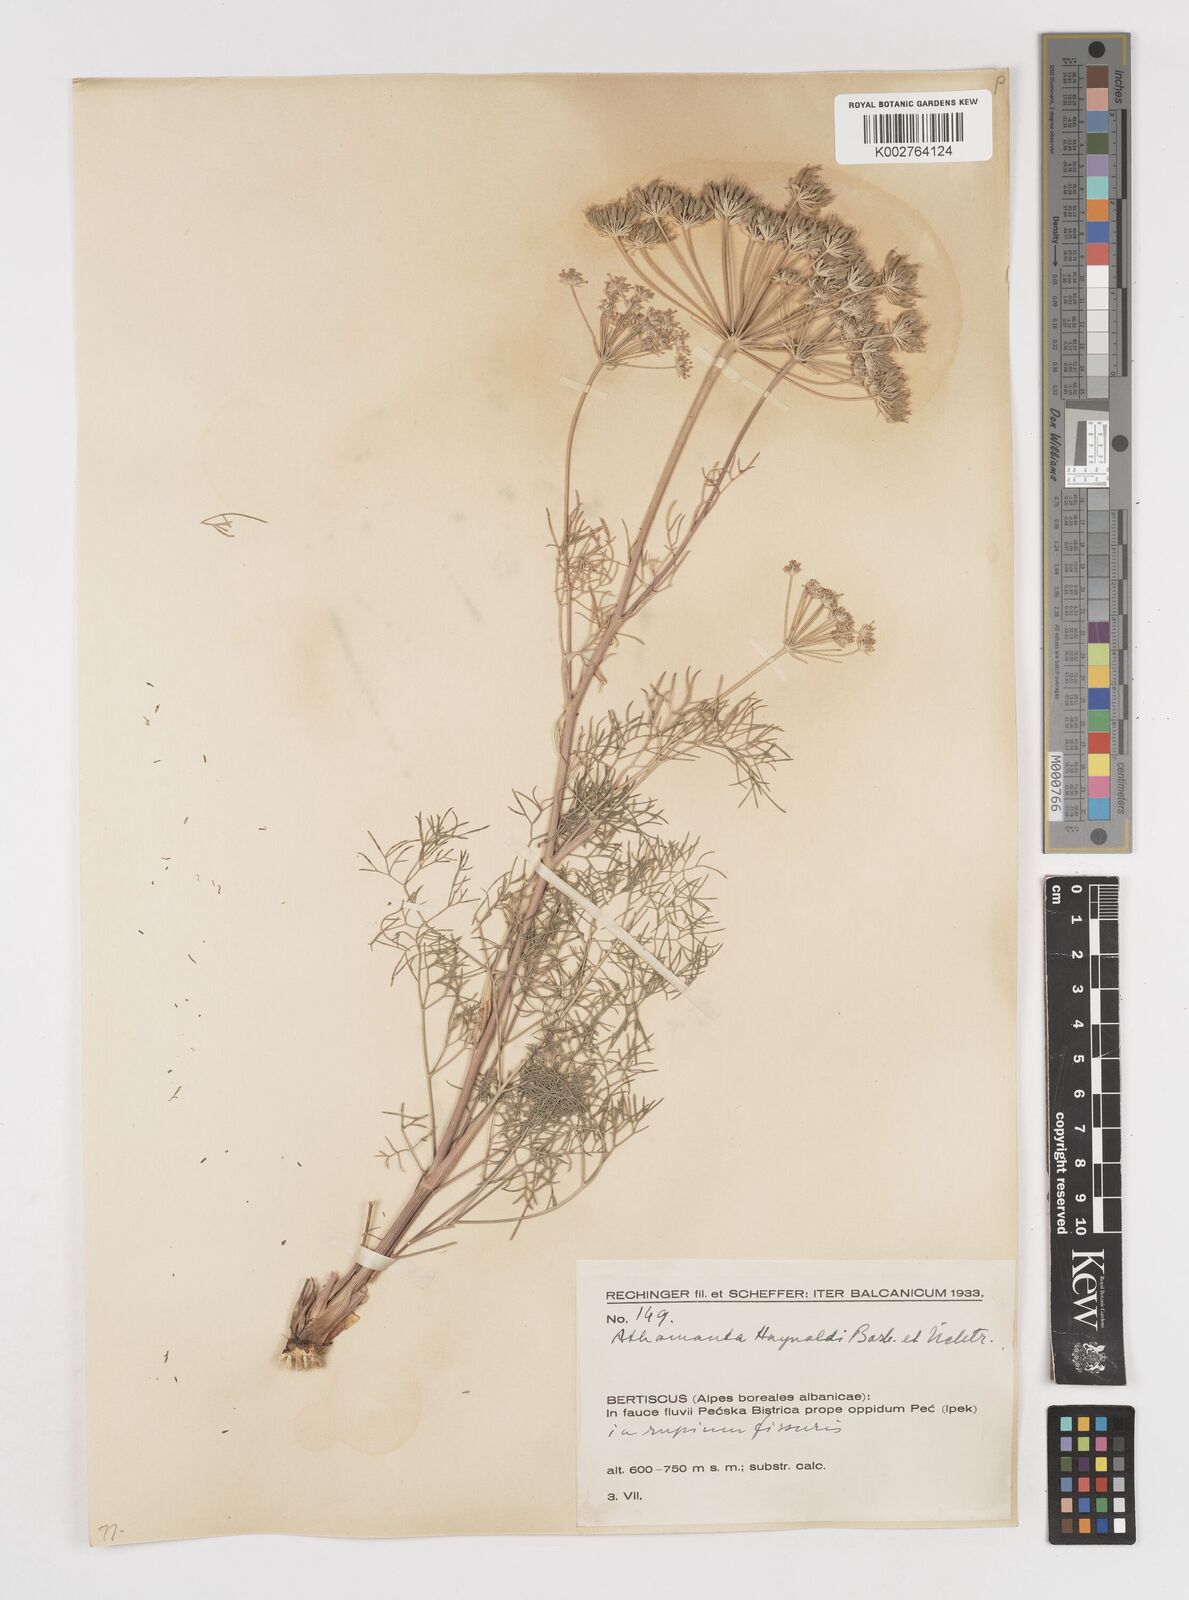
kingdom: Plantae
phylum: Tracheophyta
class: Magnoliopsida
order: Apiales
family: Apiaceae
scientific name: Apiaceae
